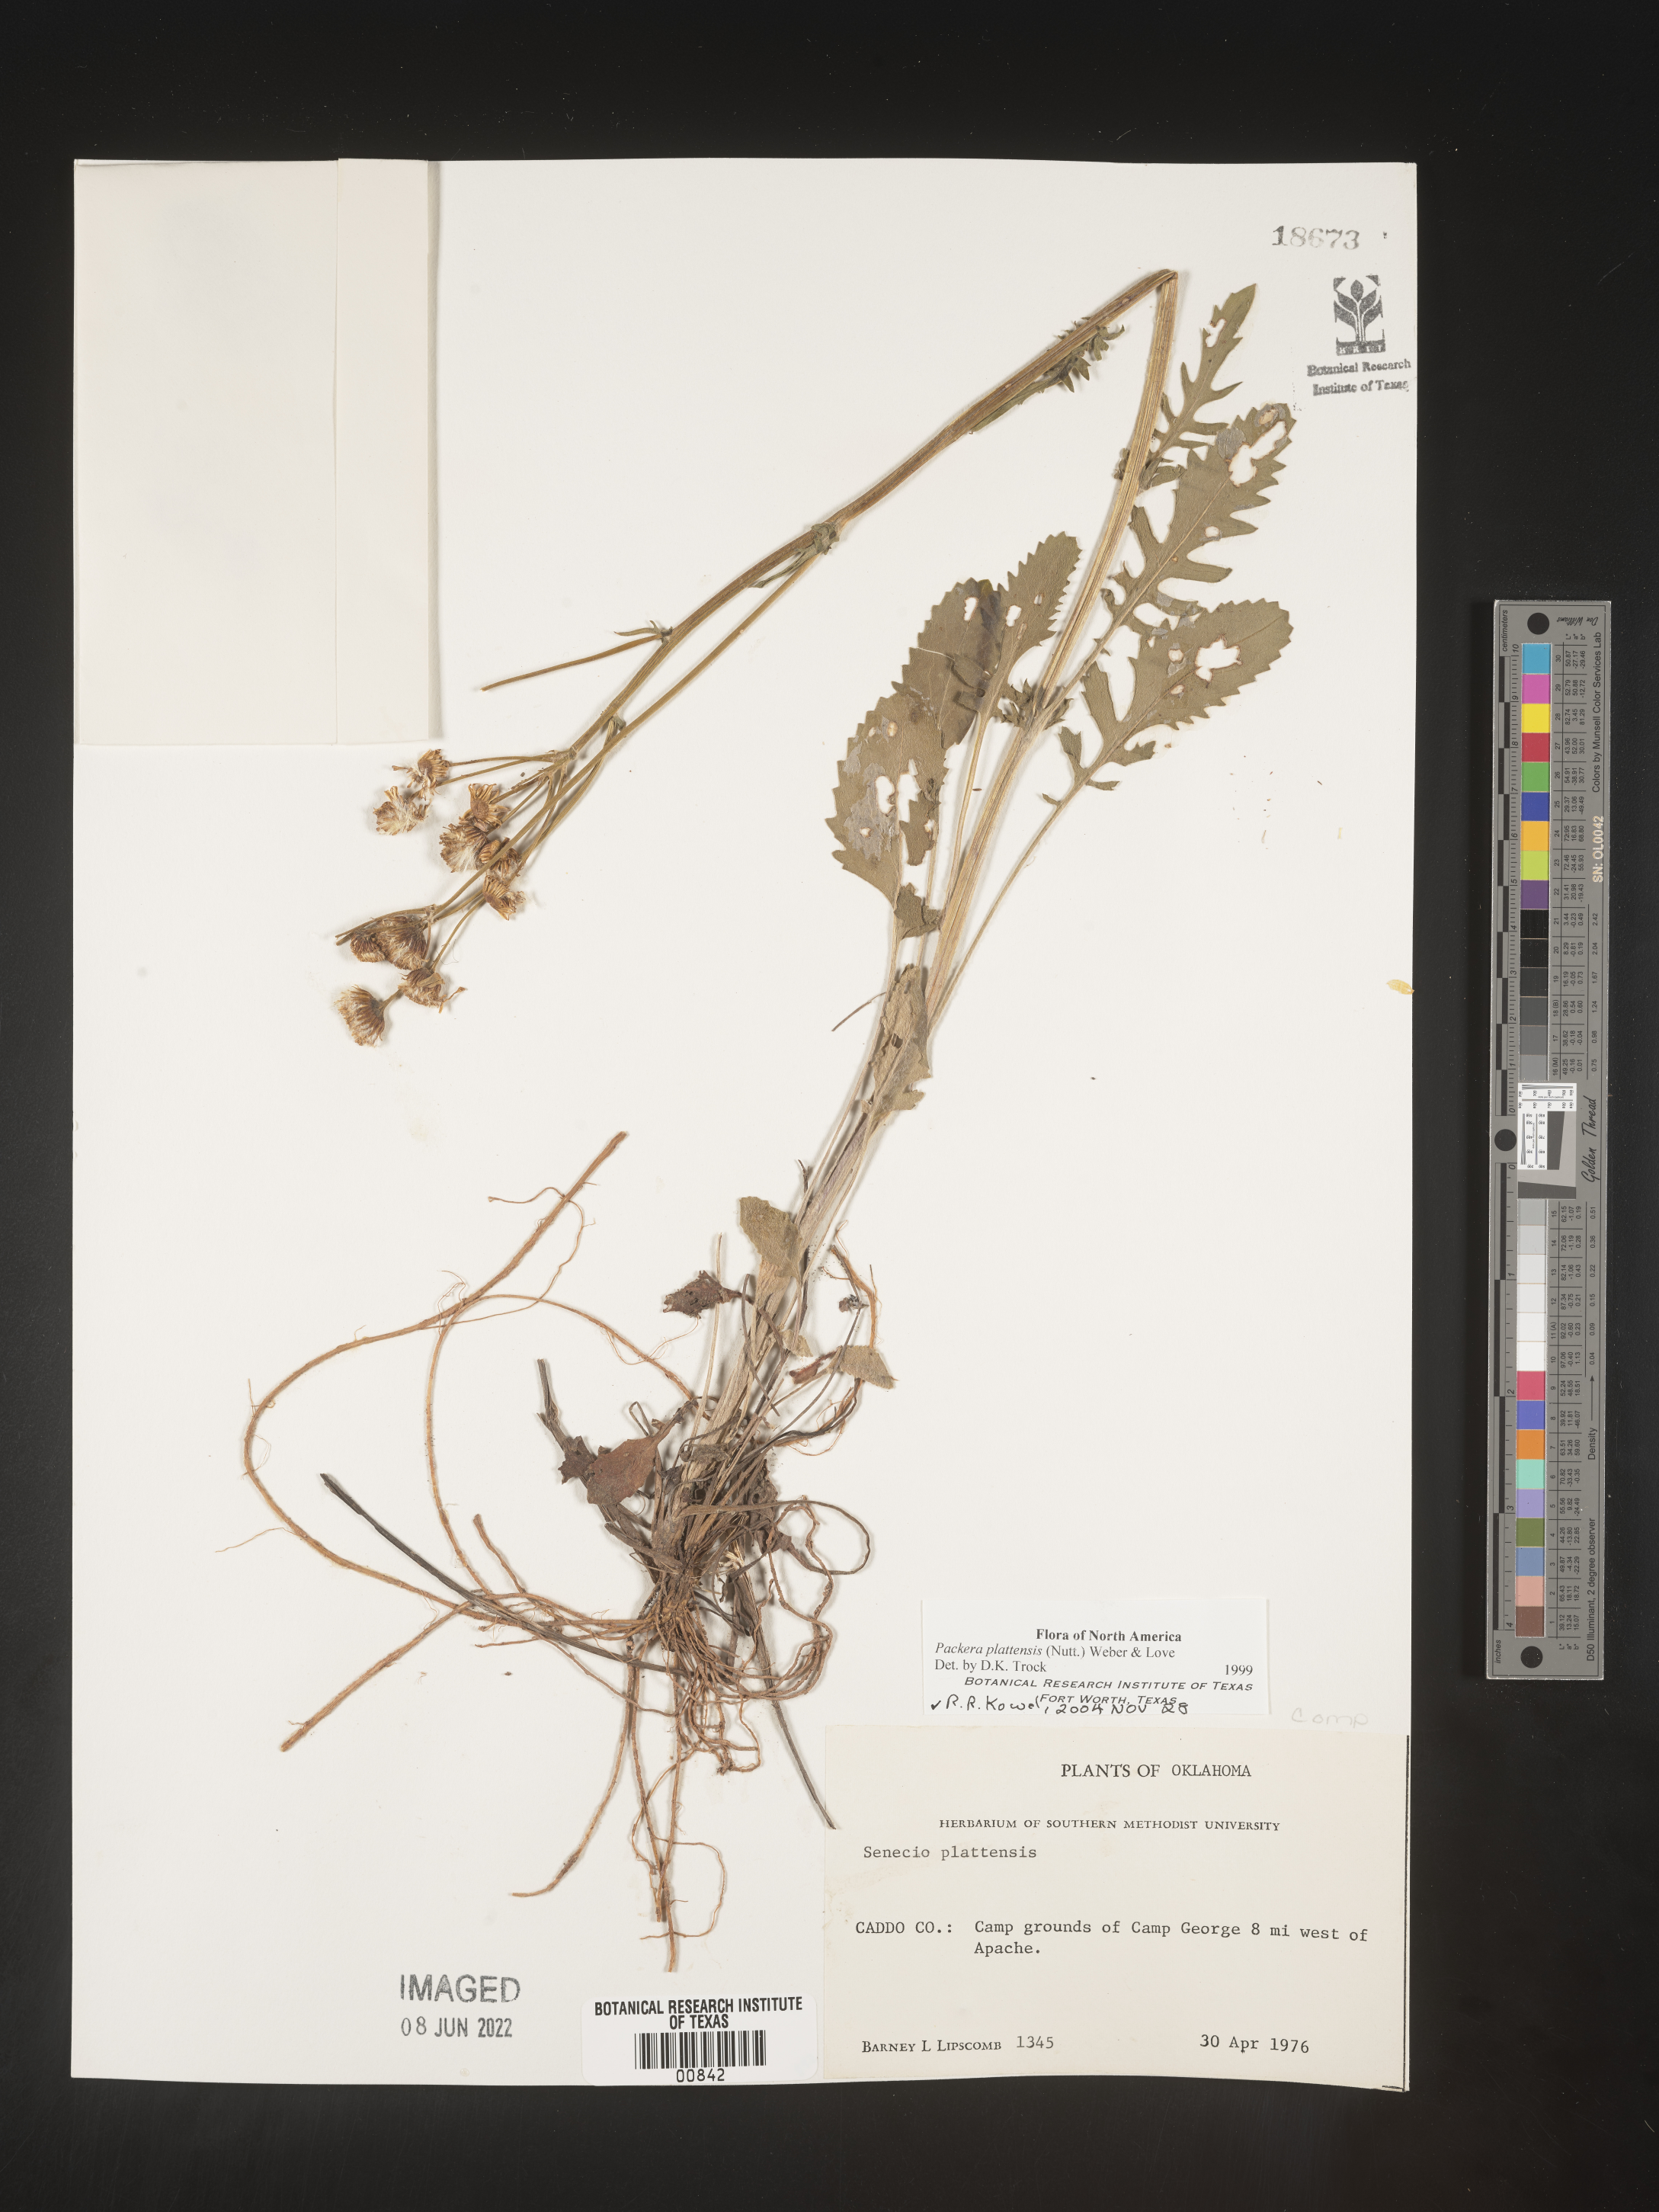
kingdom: Plantae
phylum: Tracheophyta
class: Magnoliopsida
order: Asterales
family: Asteraceae
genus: Packera
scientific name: Packera plattensis
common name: Prairie groundsel
